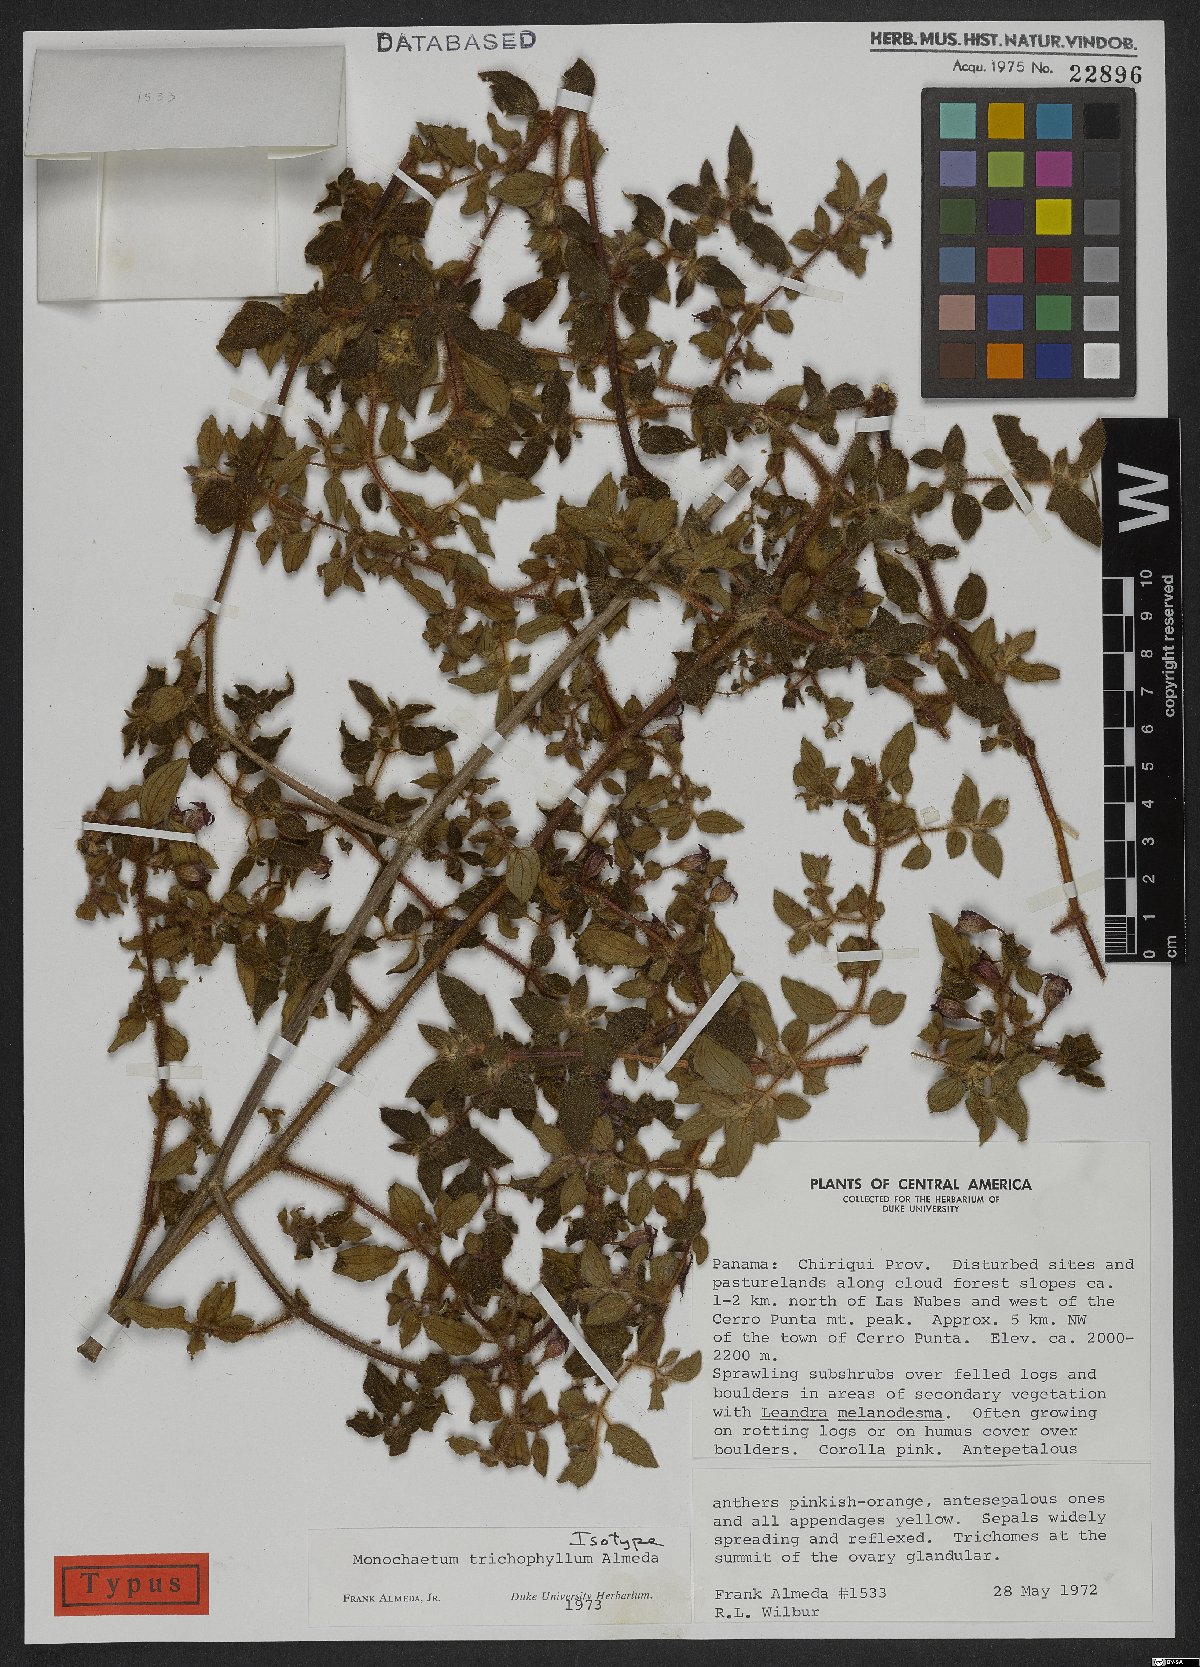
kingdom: Plantae
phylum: Tracheophyta
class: Magnoliopsida
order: Myrtales
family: Melastomataceae
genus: Monochaetum
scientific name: Monochaetum trichophyllum
